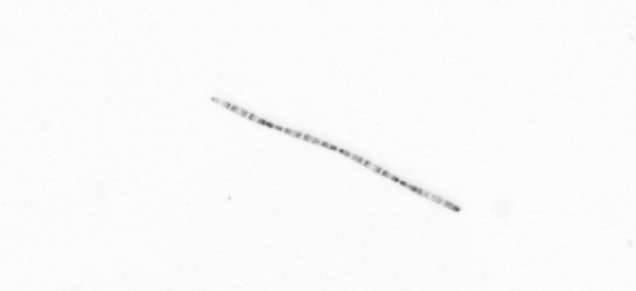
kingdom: Chromista
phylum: Ochrophyta
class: Bacillariophyceae
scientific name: Bacillariophyceae
